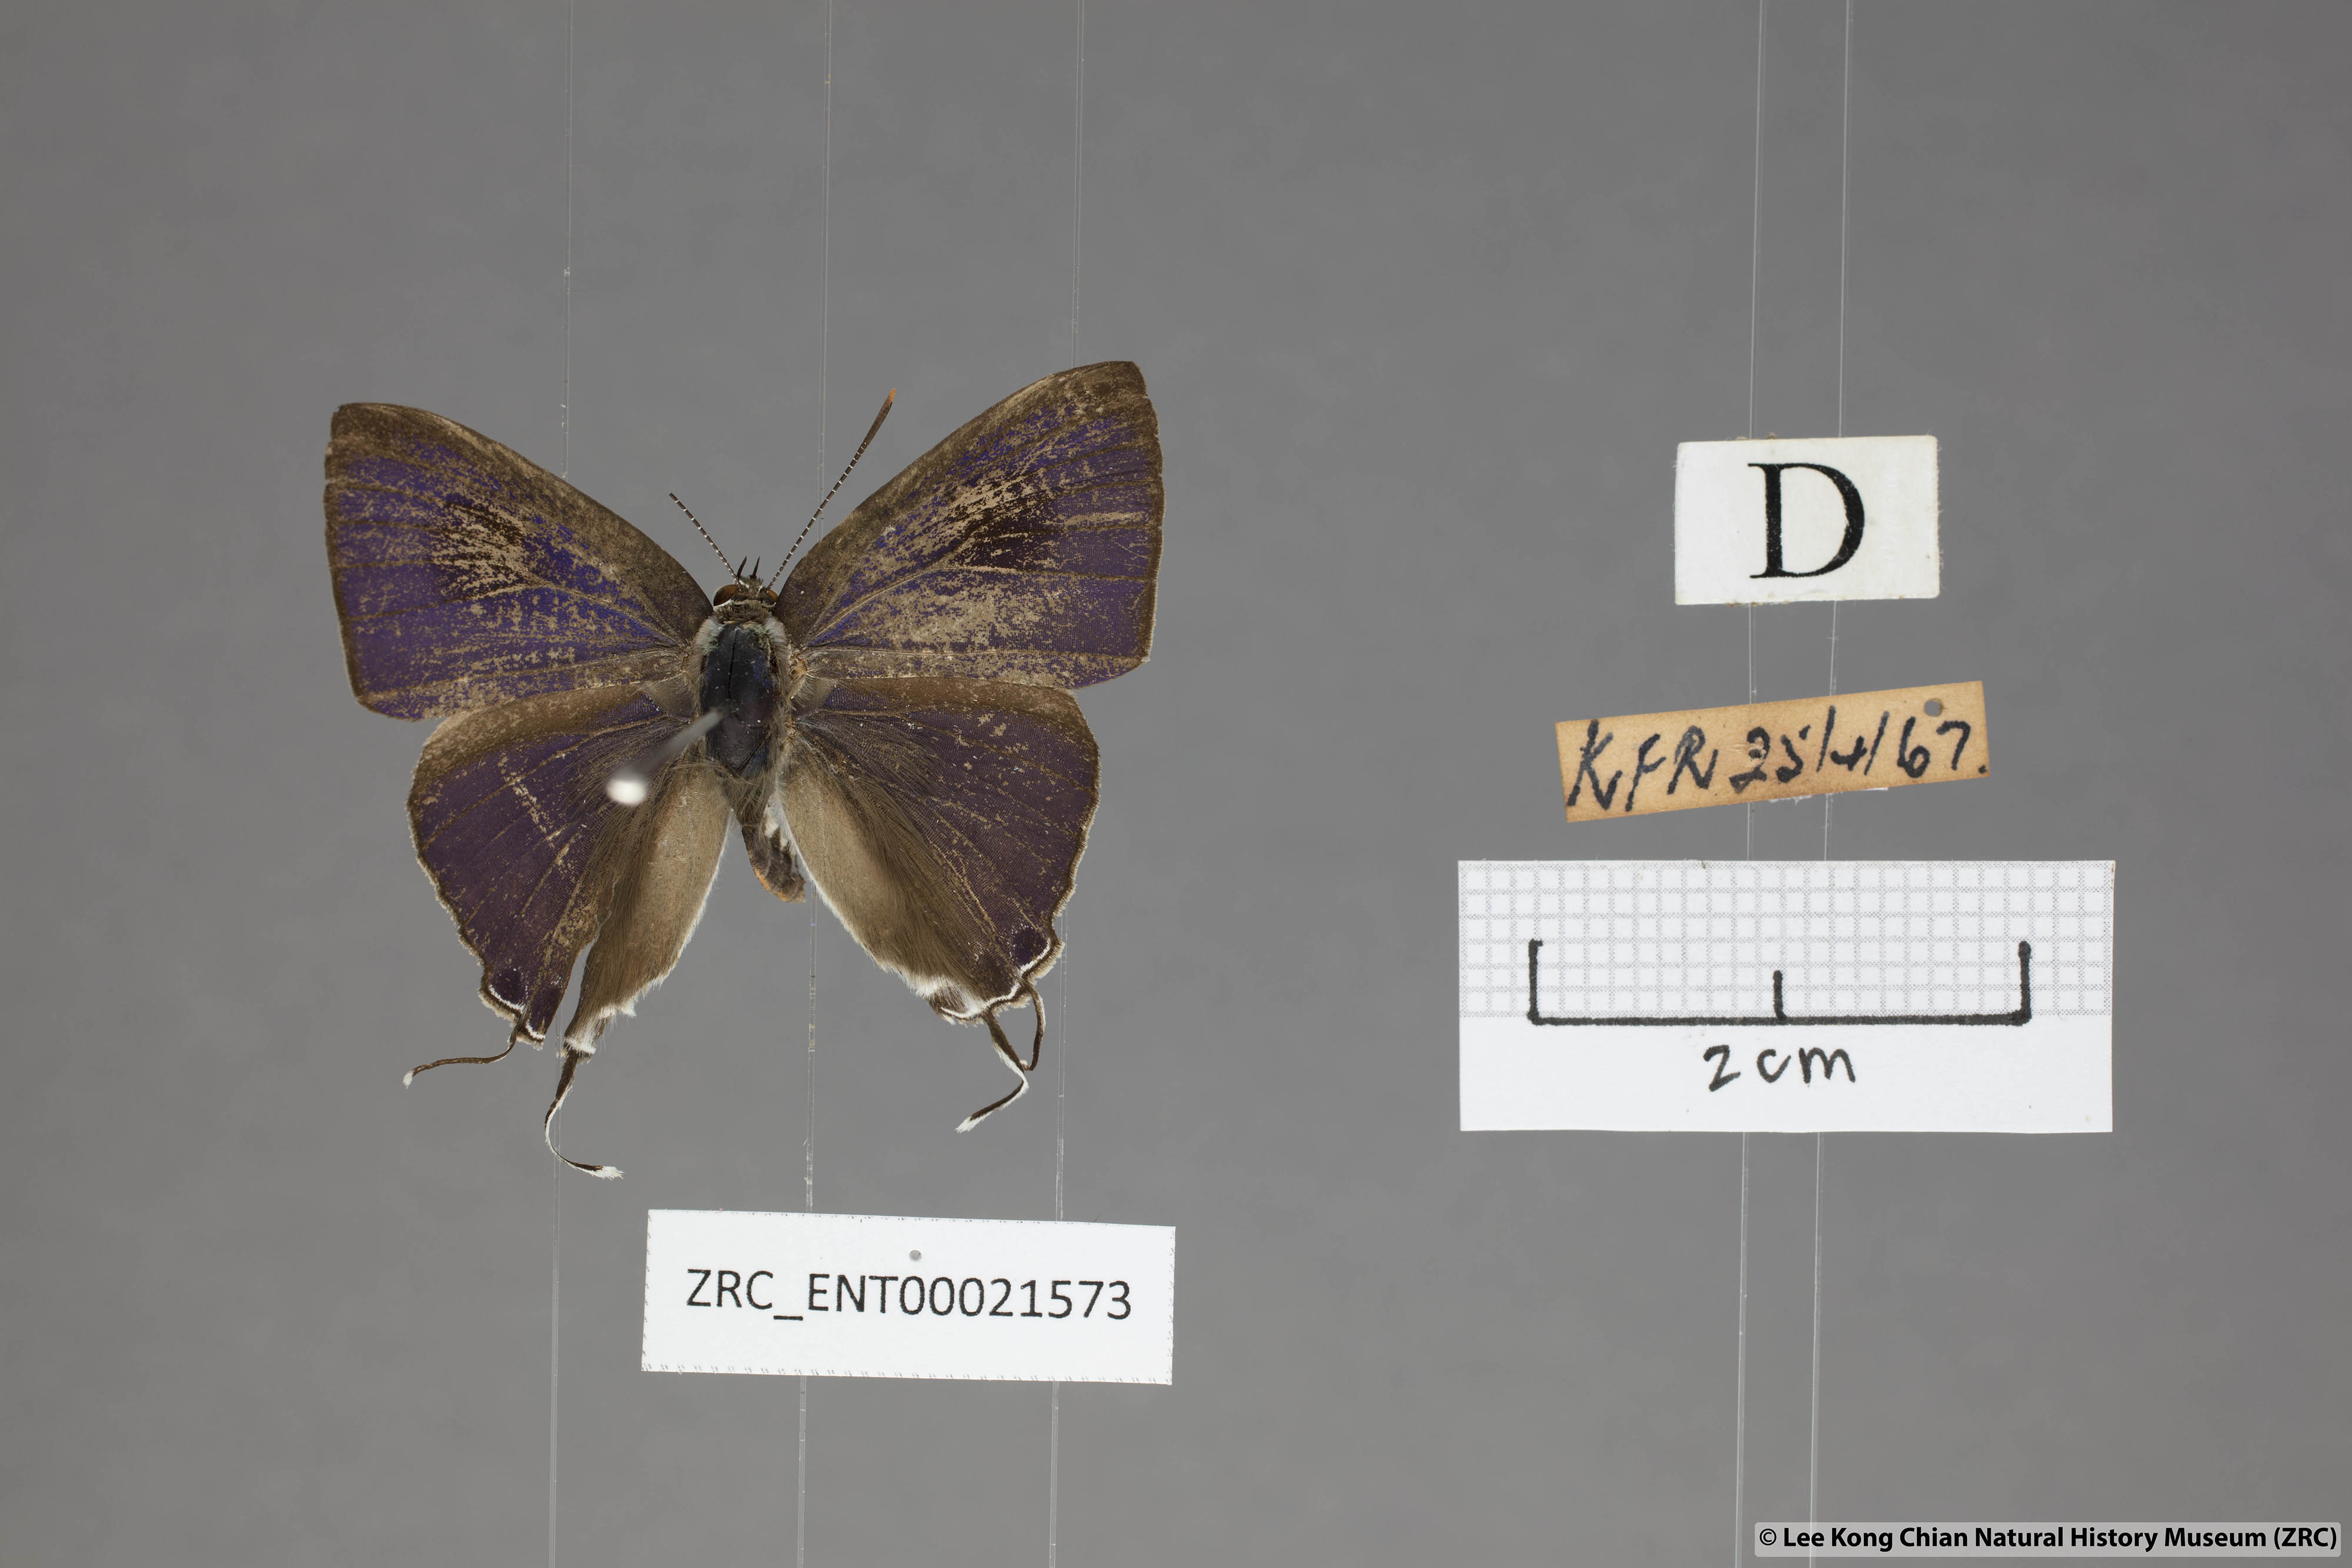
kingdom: Animalia
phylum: Arthropoda
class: Insecta
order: Lepidoptera
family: Lycaenidae
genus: Hypolycaena
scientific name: Hypolycaena erylus
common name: Common tit
